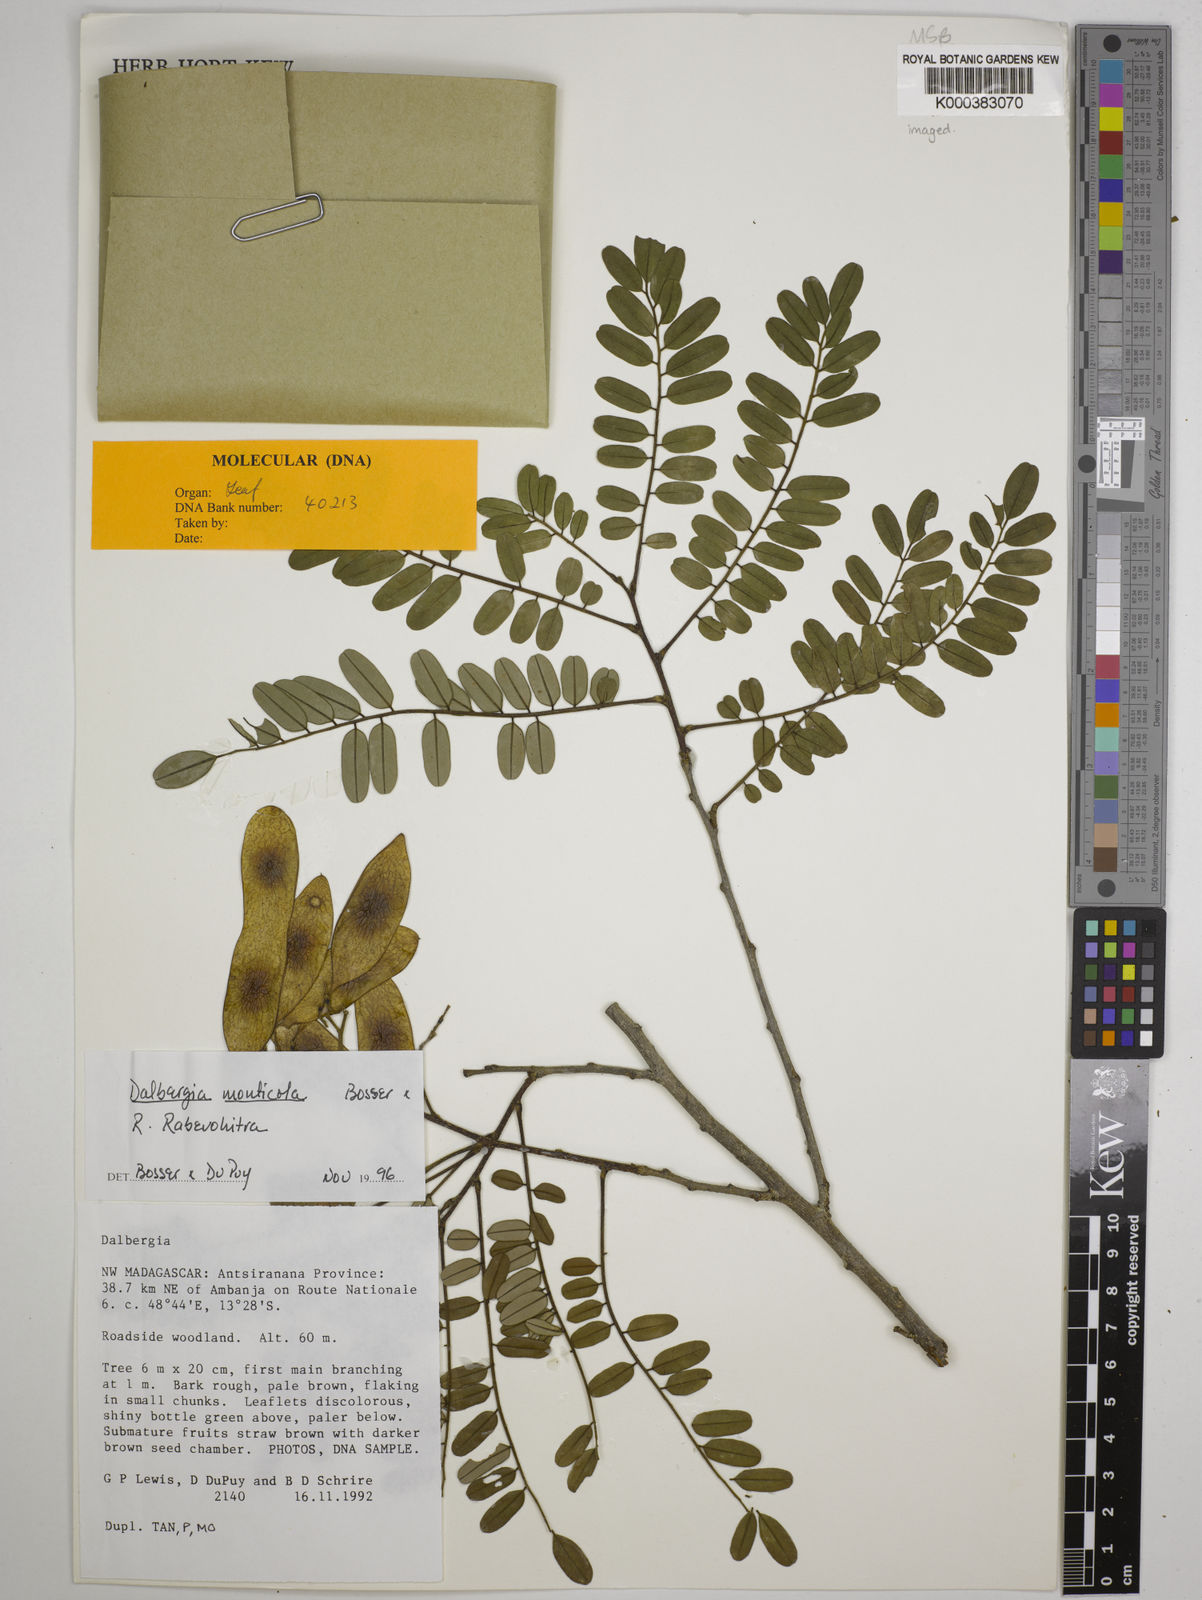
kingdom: Plantae
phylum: Tracheophyta
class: Magnoliopsida
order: Fabales
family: Fabaceae
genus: Dalbergia
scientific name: Dalbergia monticola
